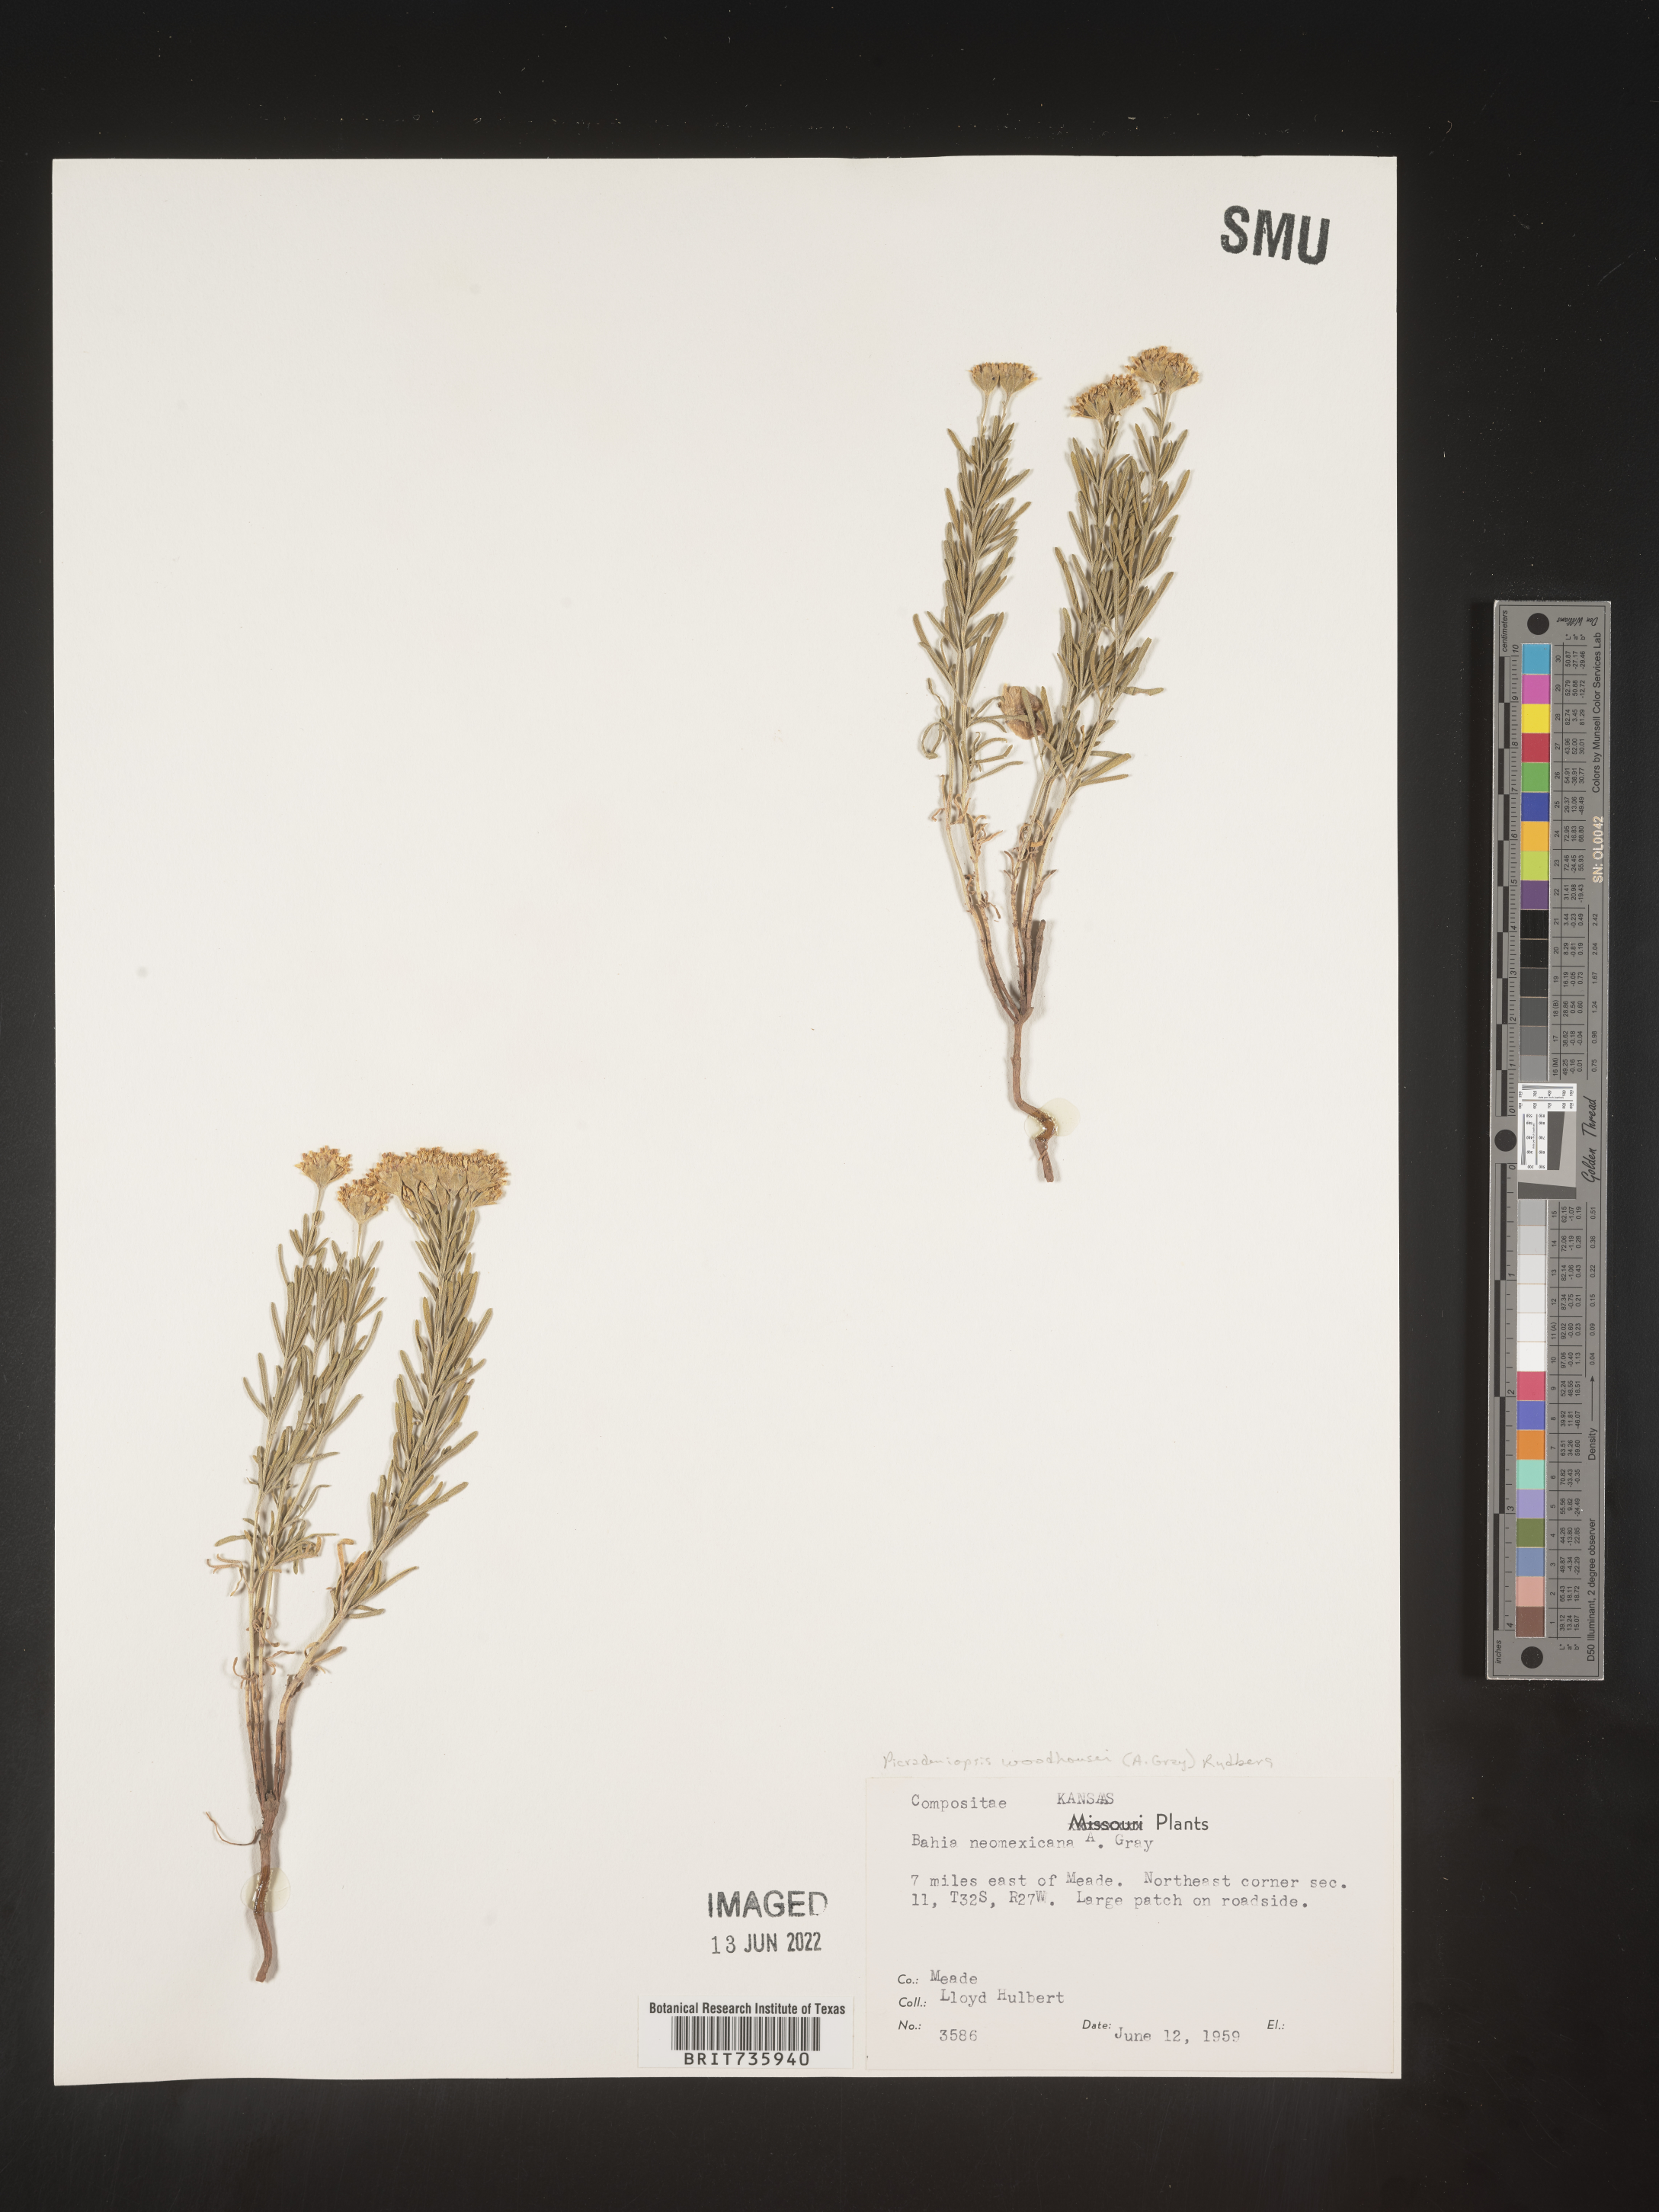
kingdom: Plantae
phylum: Tracheophyta
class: Magnoliopsida
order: Asterales
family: Asteraceae
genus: Picradeniopsis
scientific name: Picradeniopsis woodhousei
